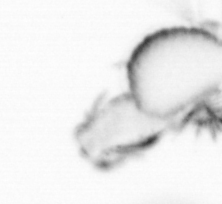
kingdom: Animalia
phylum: Annelida
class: Polychaeta
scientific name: Polychaeta
